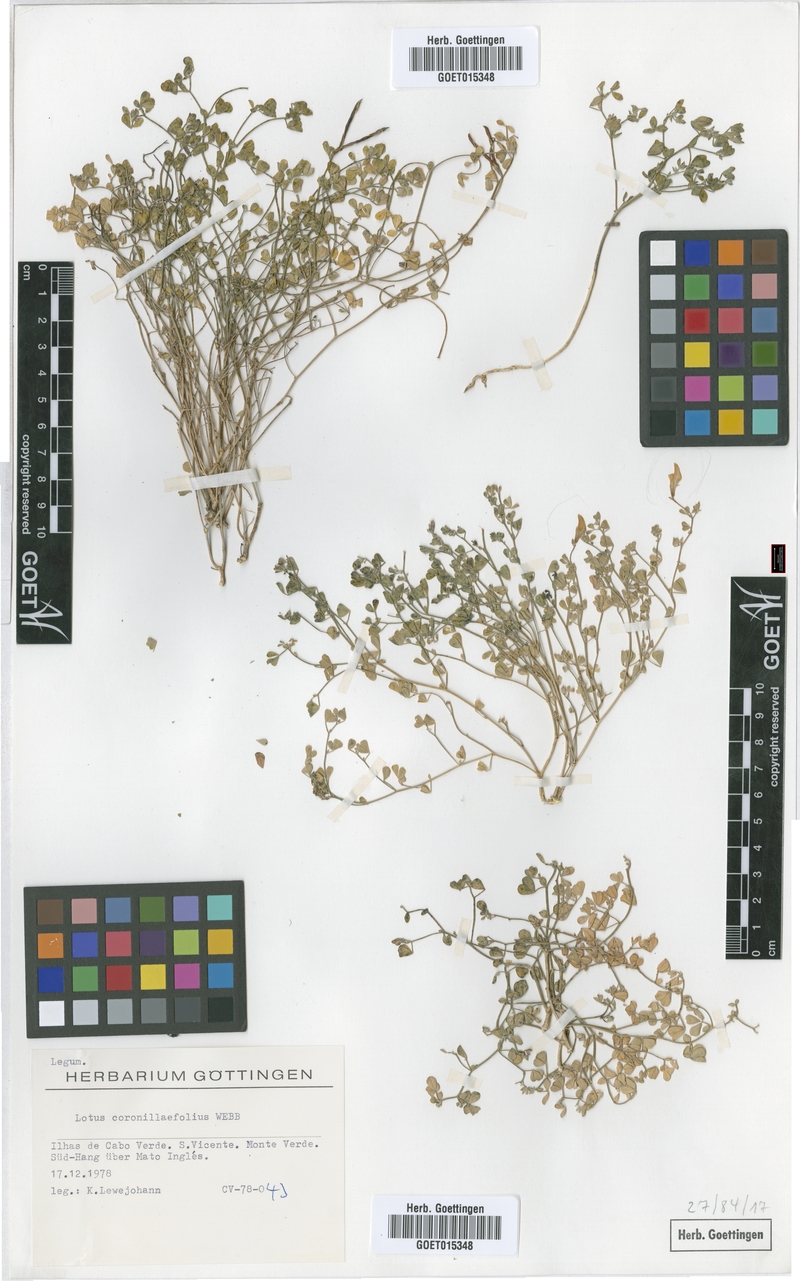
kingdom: Plantae
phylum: Tracheophyta
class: Magnoliopsida
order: Fabales
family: Fabaceae
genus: Lotus
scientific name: Lotus coronillaefolius
